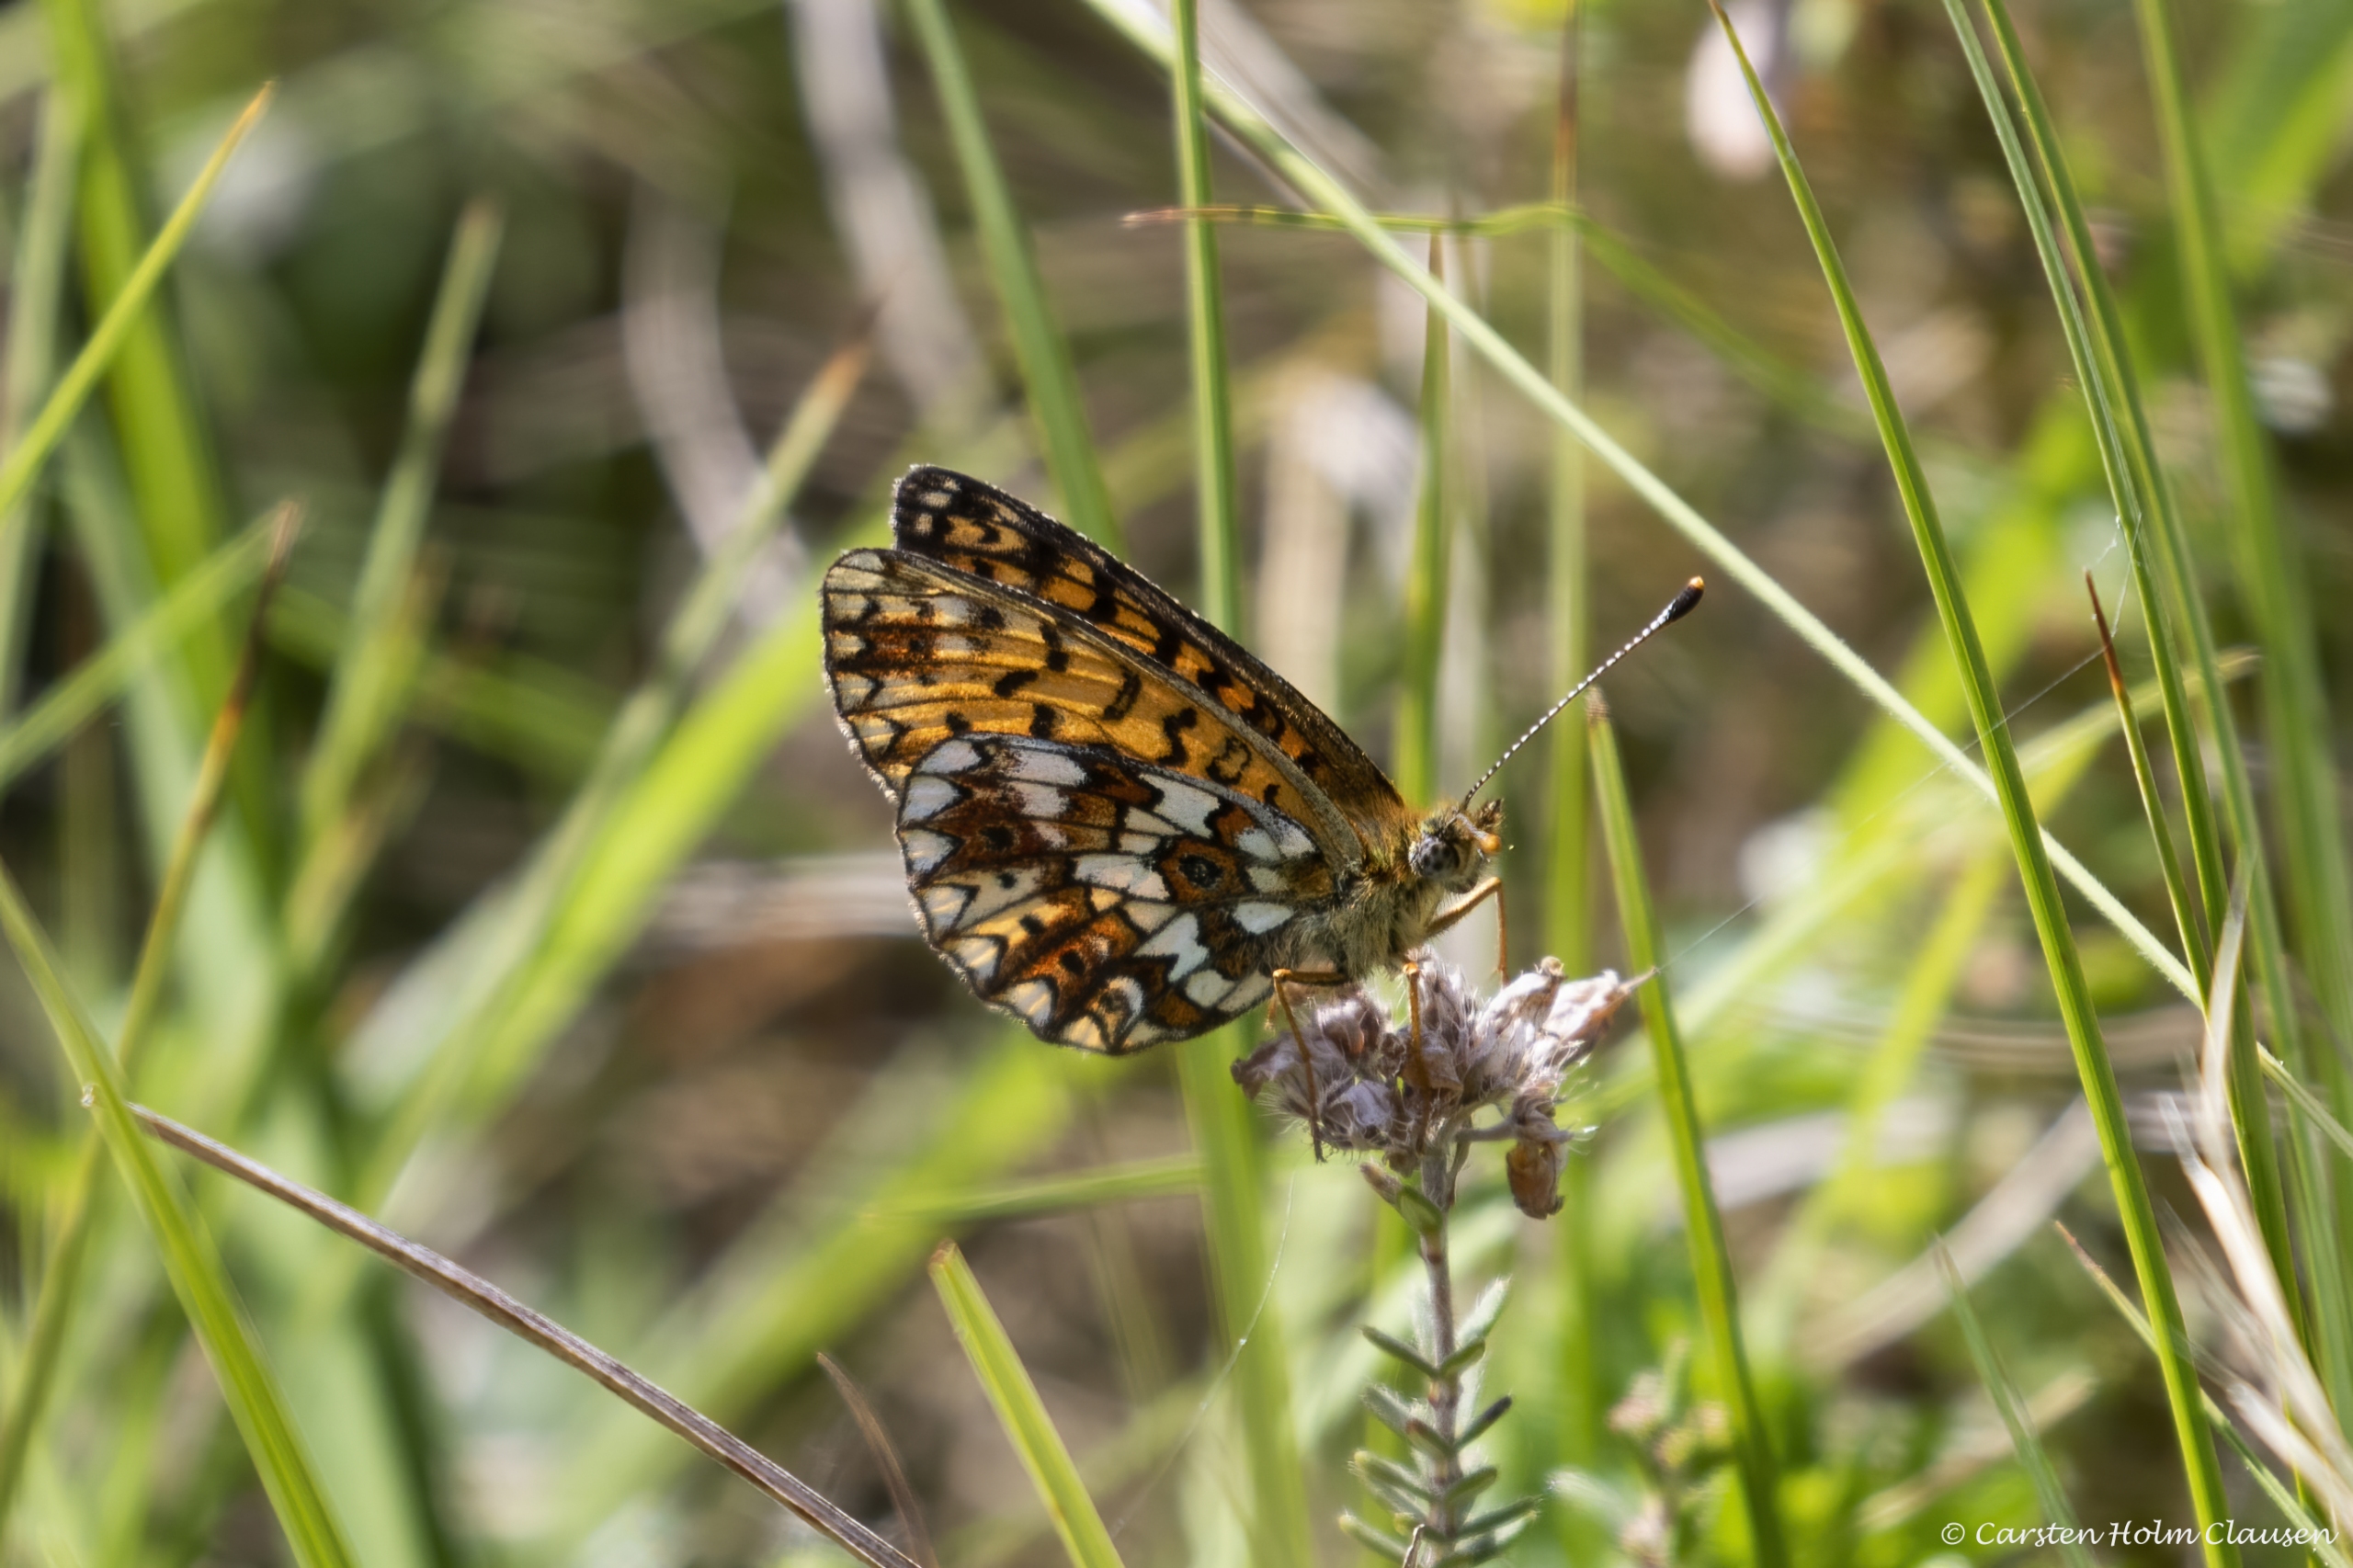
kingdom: Animalia
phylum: Arthropoda
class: Insecta
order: Lepidoptera
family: Nymphalidae
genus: Boloria
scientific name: Boloria selene
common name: Brunlig perlemorsommerfugl
